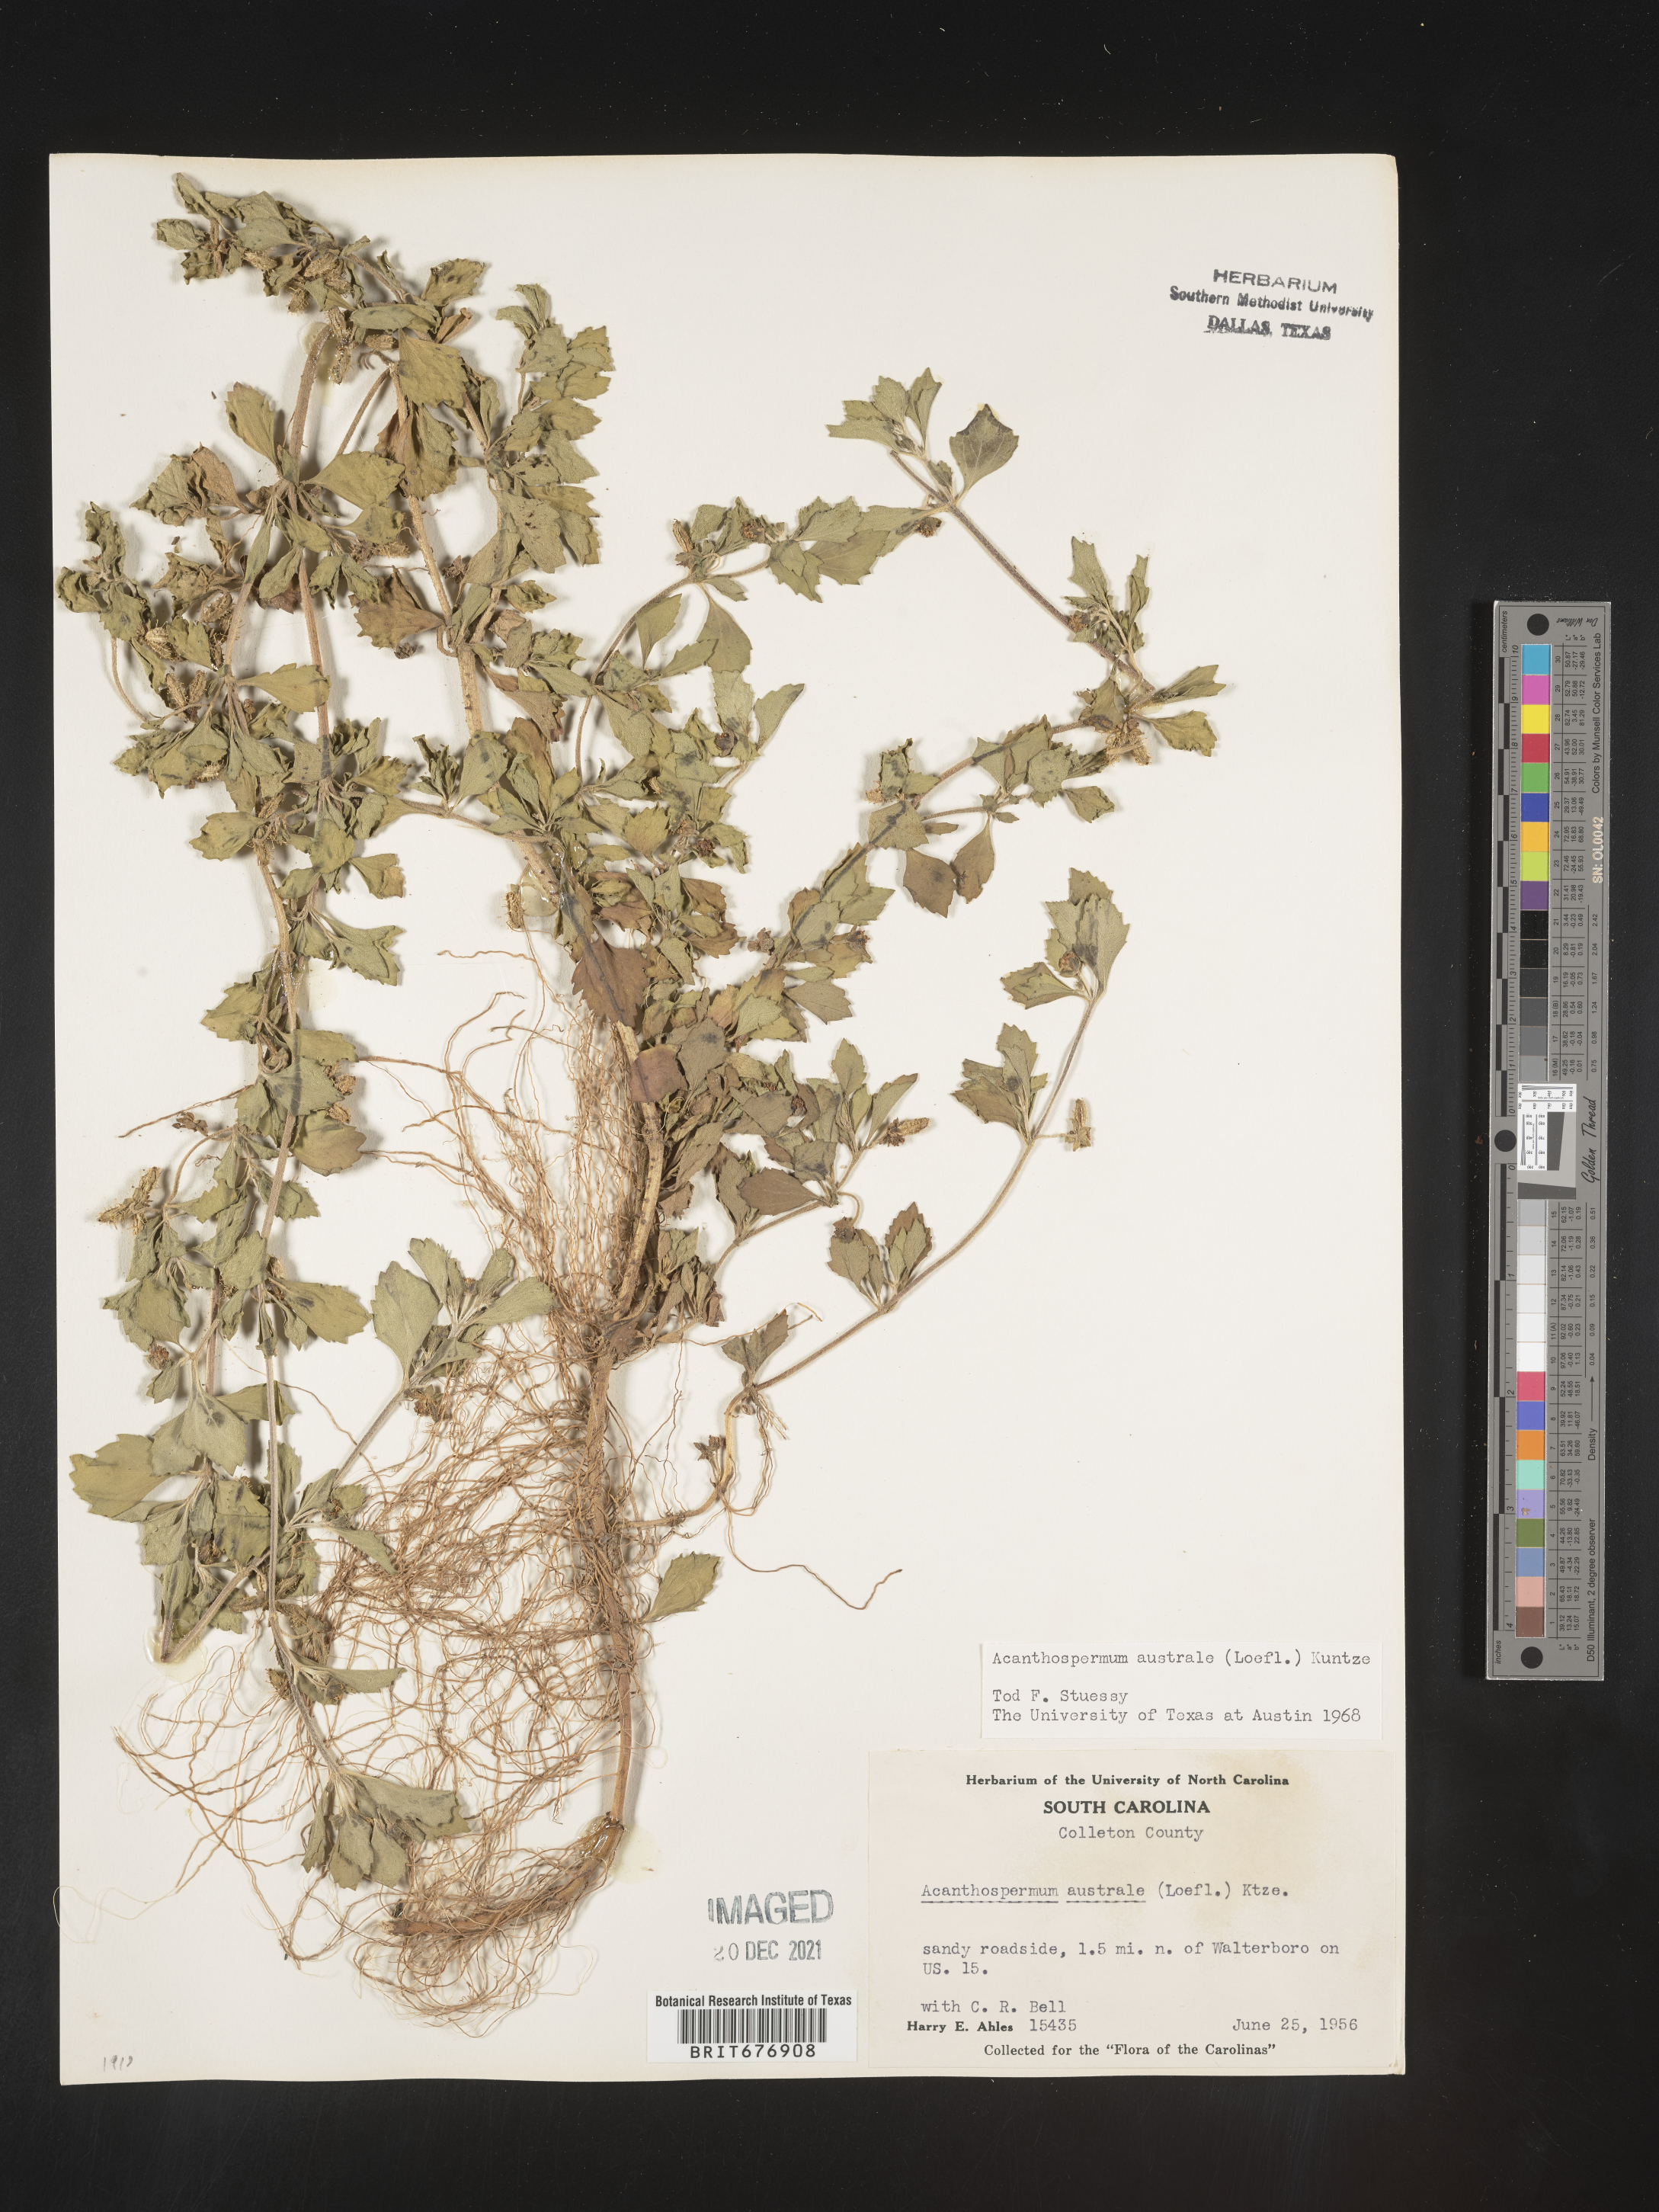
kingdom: Plantae
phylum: Tracheophyta
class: Magnoliopsida
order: Asterales
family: Asteraceae
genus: Acanthospermum
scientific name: Acanthospermum australe
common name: Paraguayan starbur
